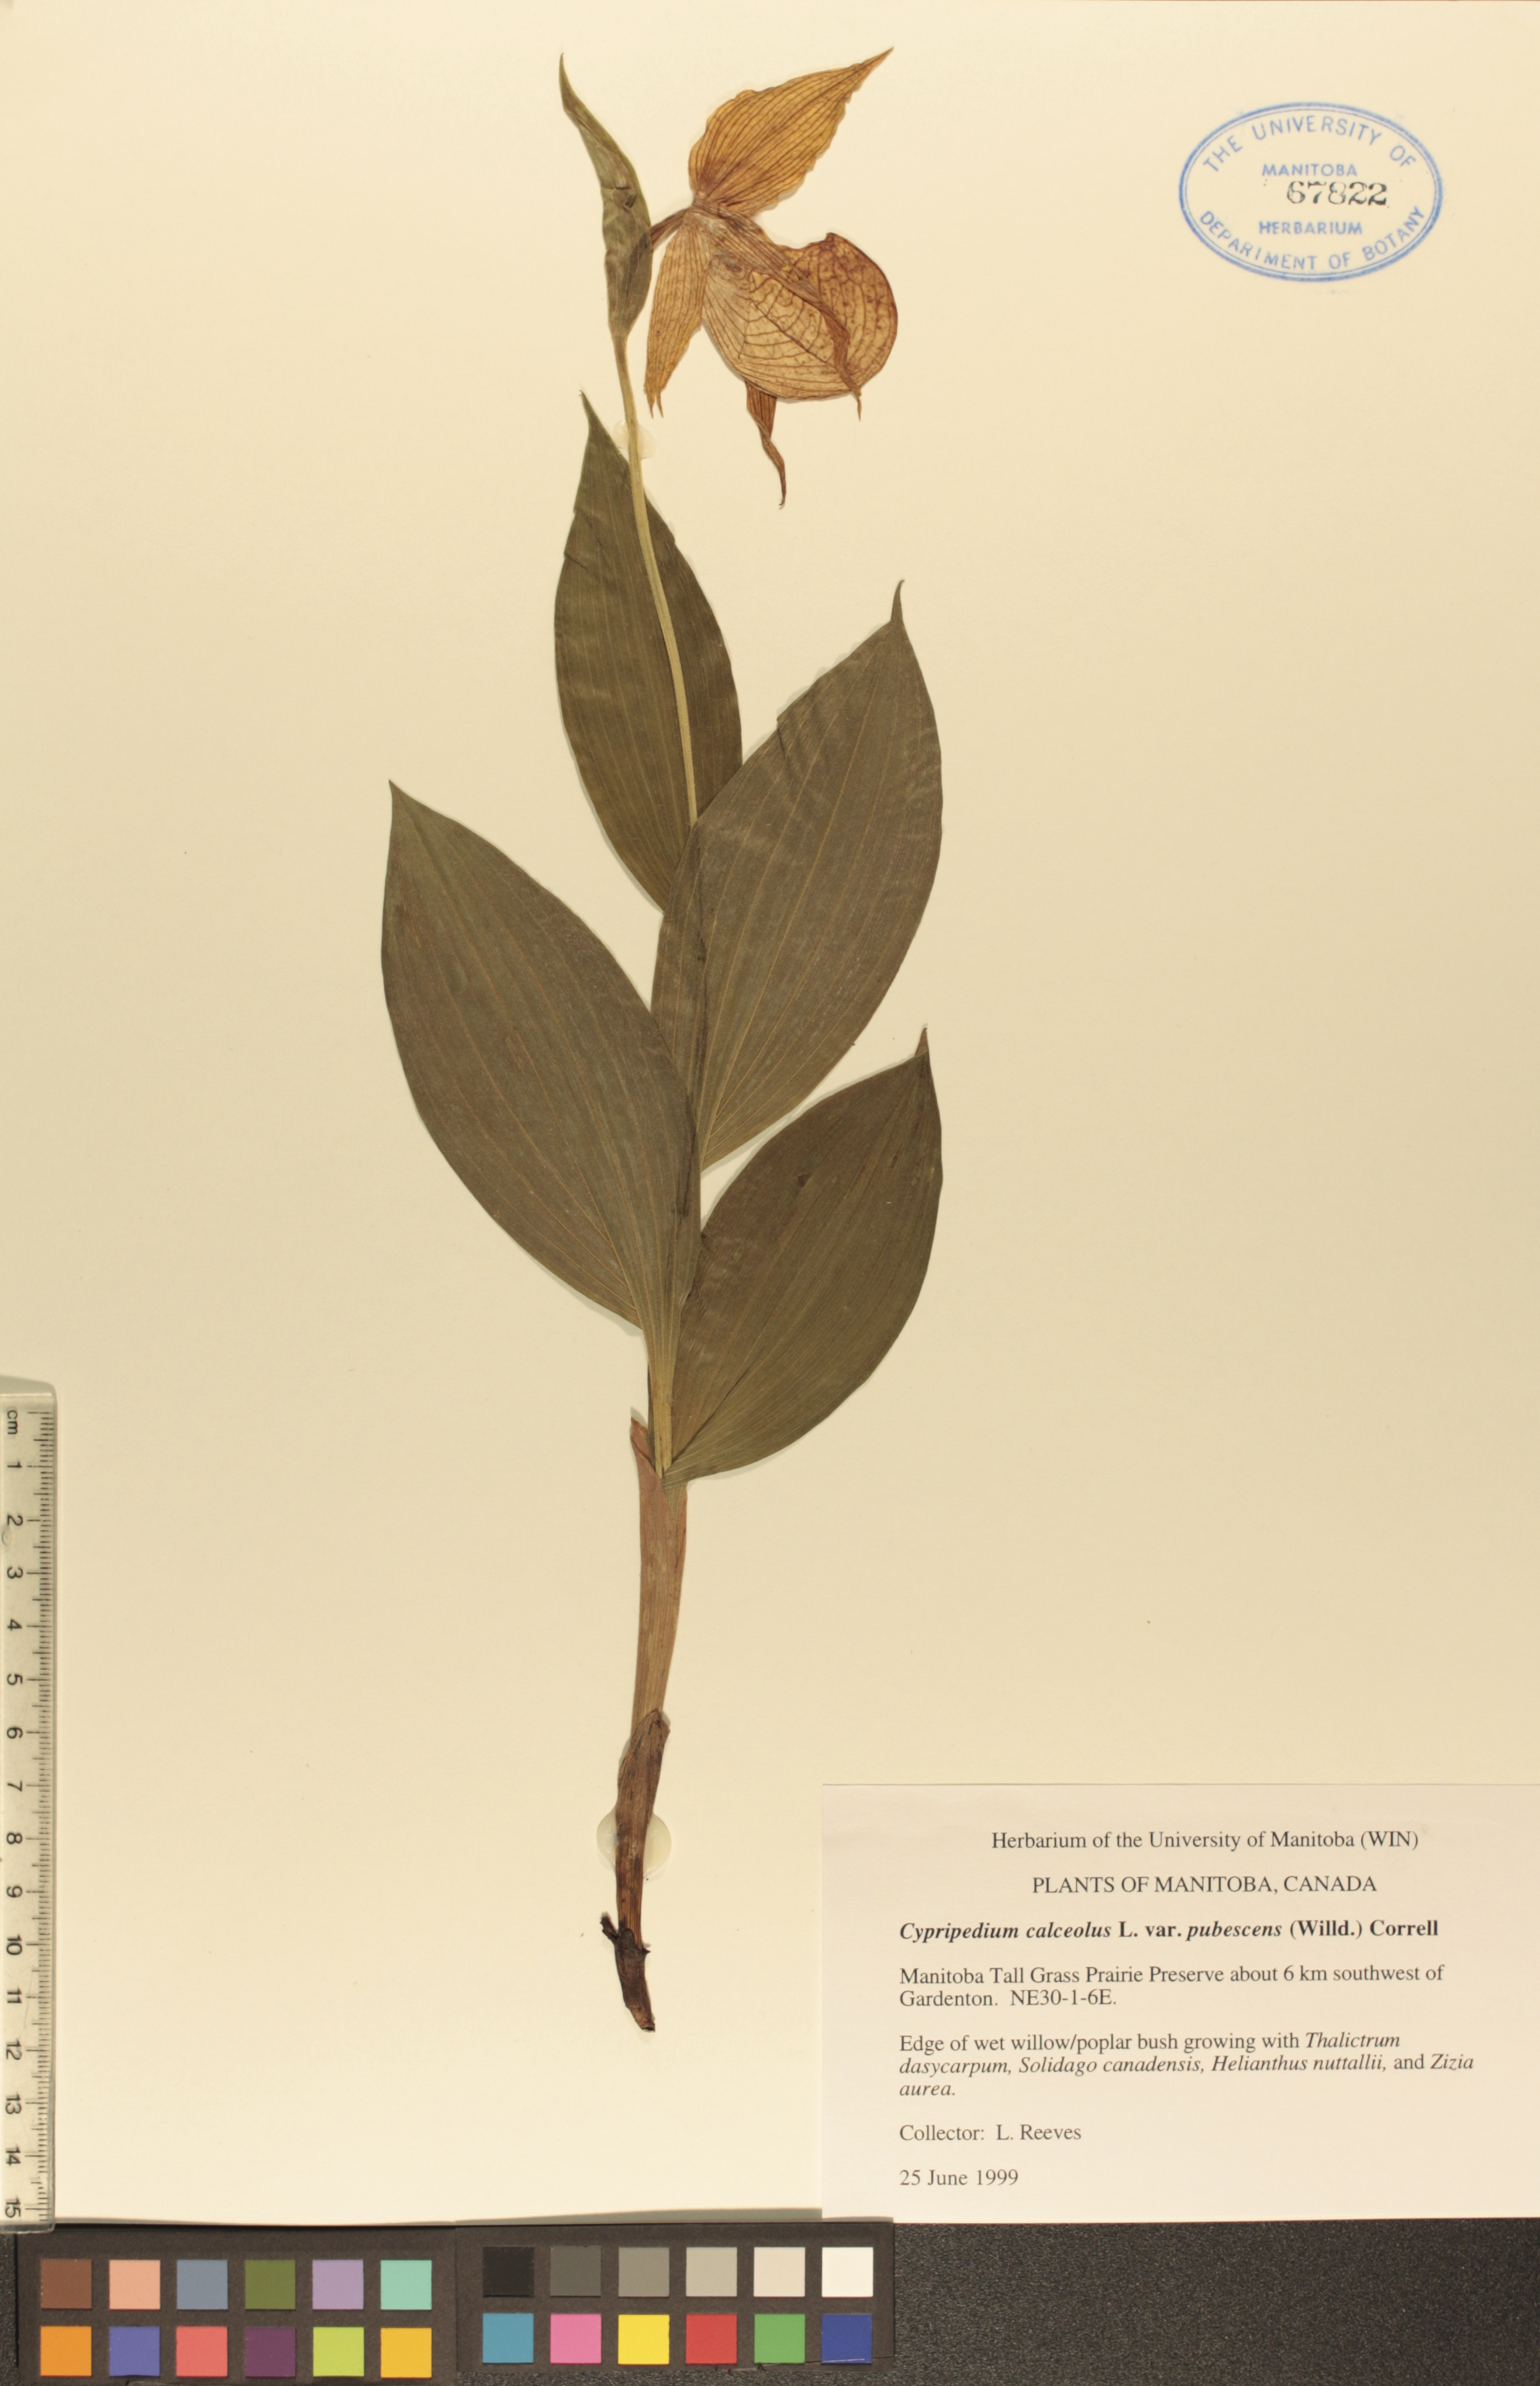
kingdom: Plantae
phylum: Tracheophyta
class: Liliopsida
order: Asparagales
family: Orchidaceae
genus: Cypripedium
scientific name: Cypripedium parviflorum
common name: American yellow lady's-slipper
